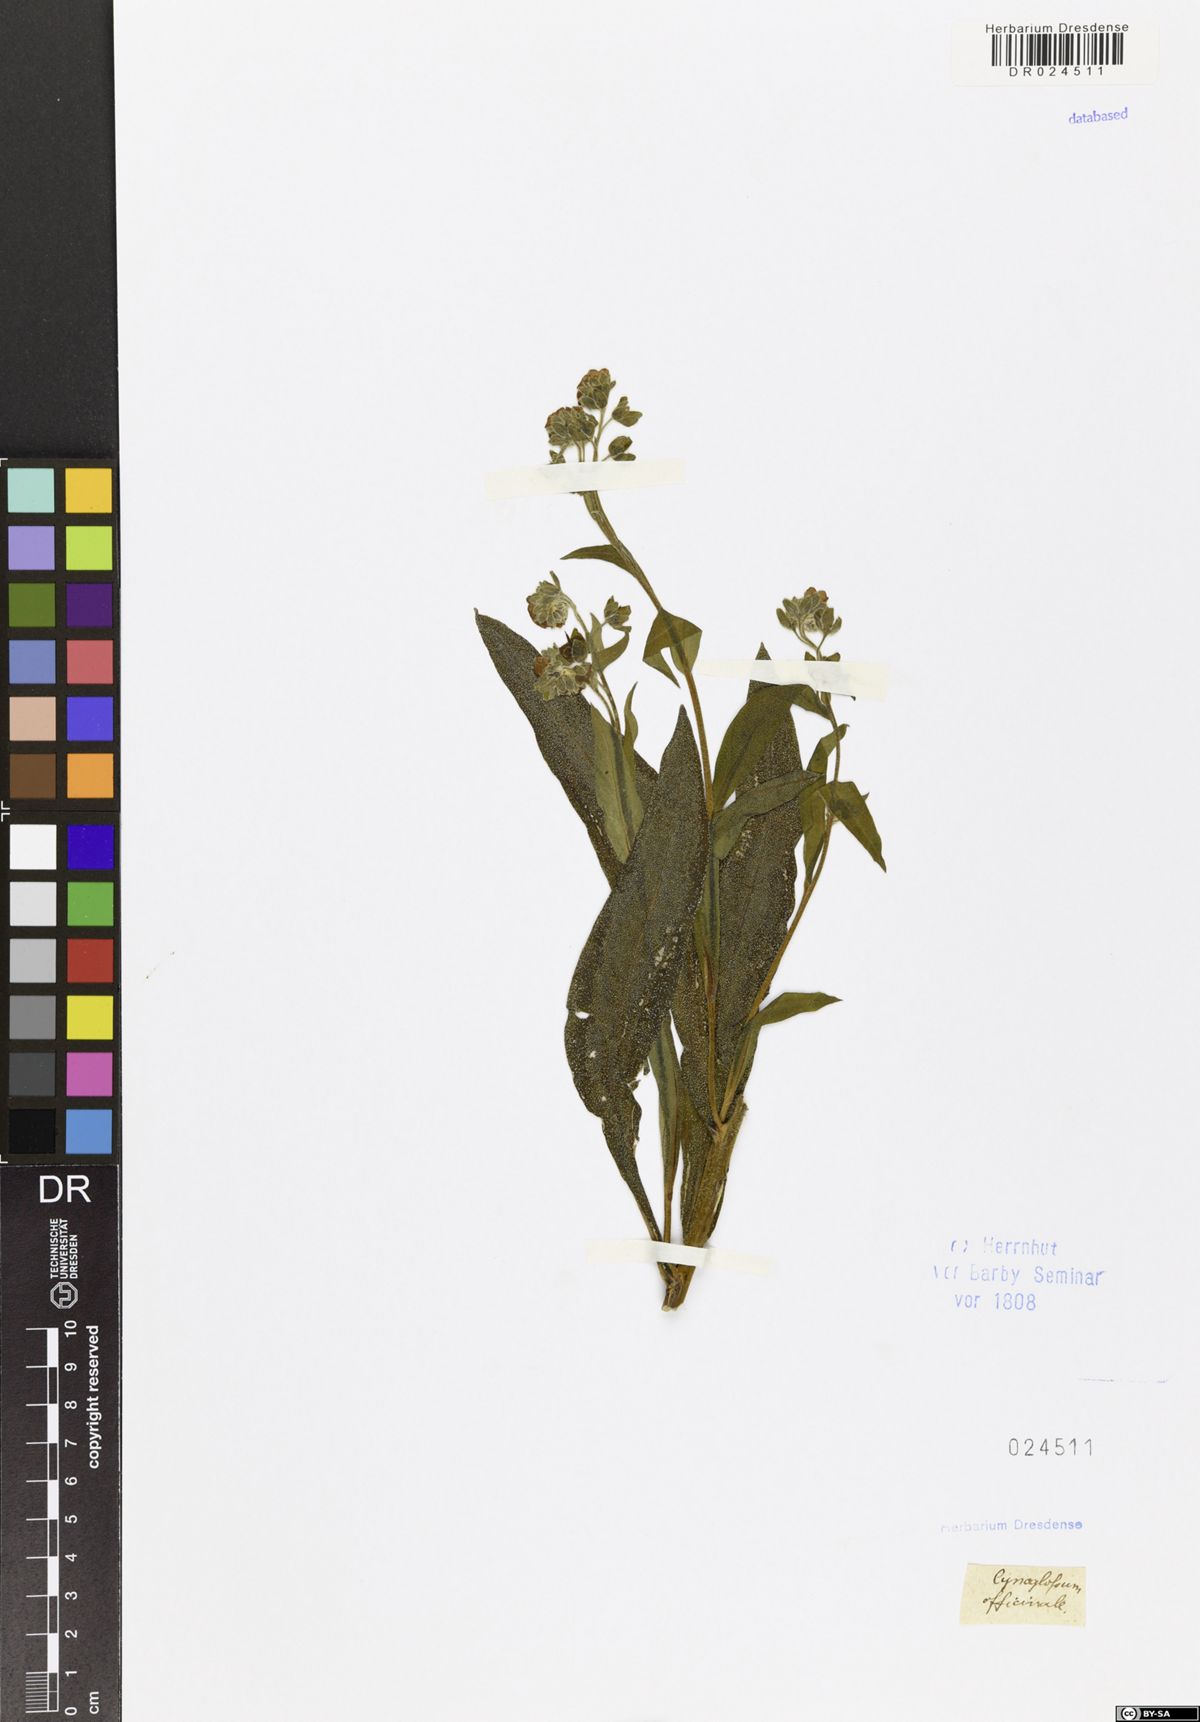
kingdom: Plantae
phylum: Tracheophyta
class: Magnoliopsida
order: Boraginales
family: Boraginaceae
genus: Cynoglossum
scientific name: Cynoglossum officinale
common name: Hound's-tongue
